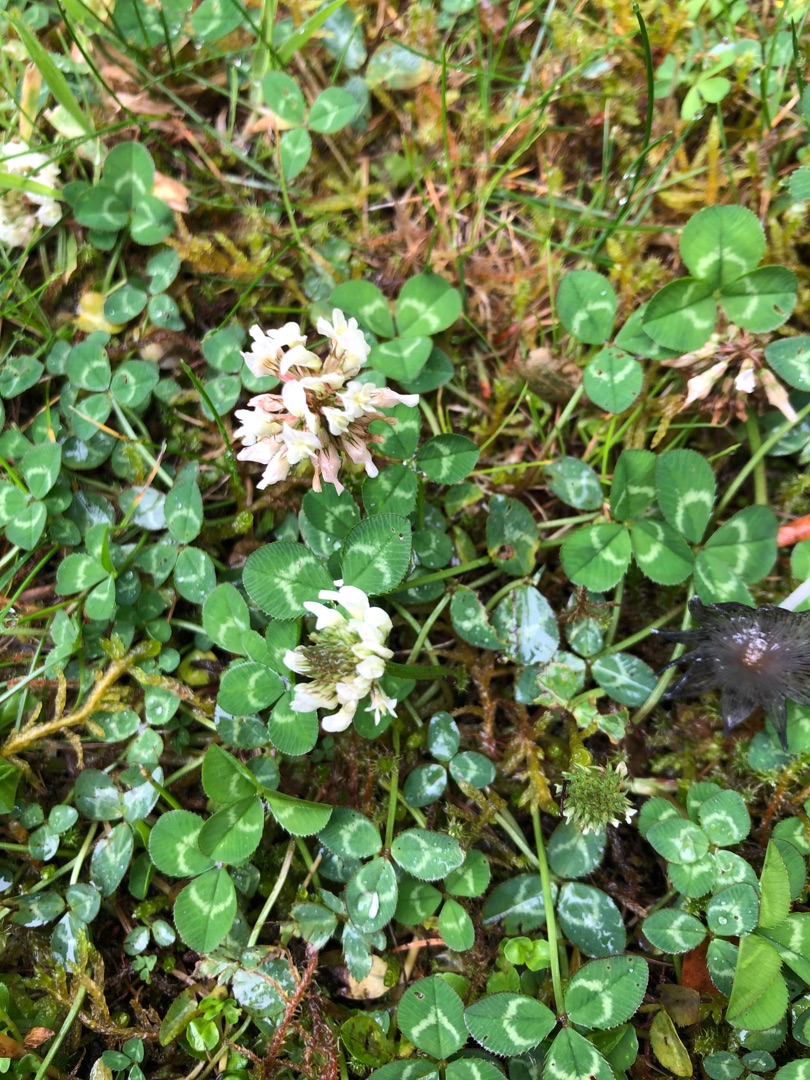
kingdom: Plantae
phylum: Tracheophyta
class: Magnoliopsida
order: Fabales
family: Fabaceae
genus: Trifolium
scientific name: Trifolium repens
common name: Hvid-kløver
